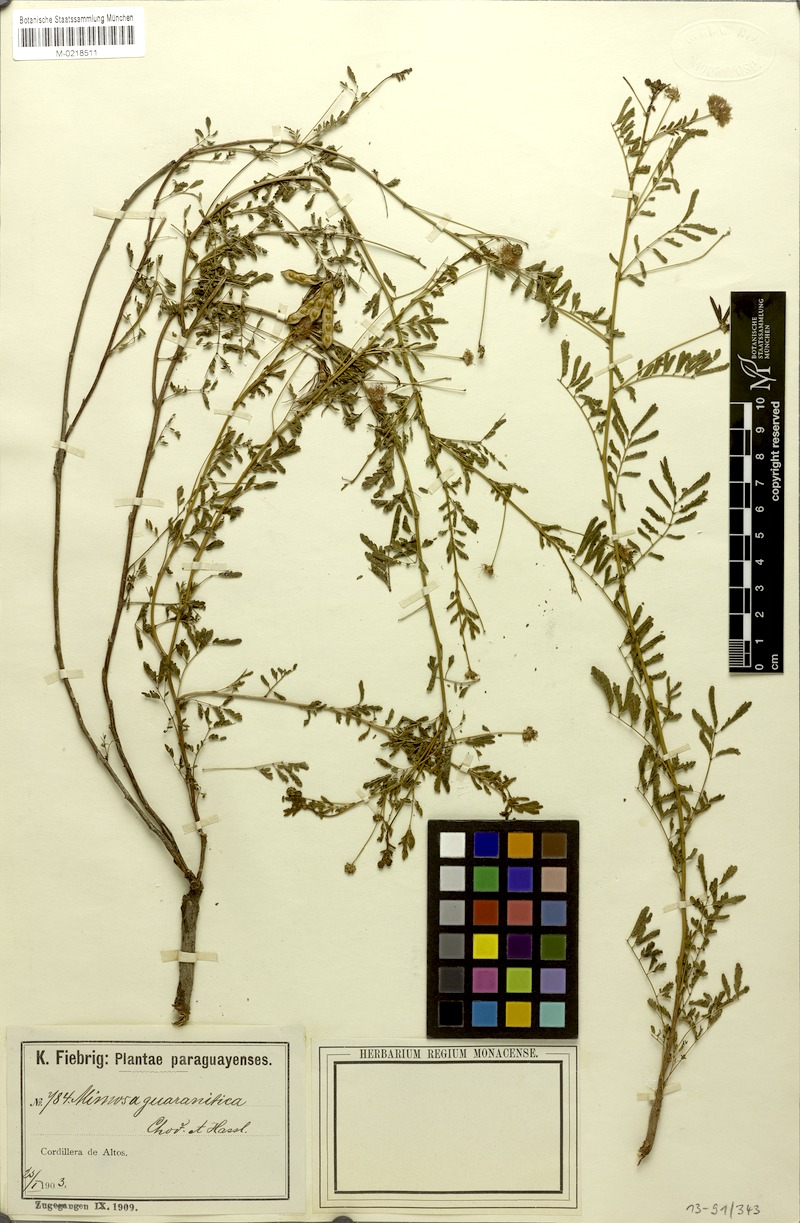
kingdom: Plantae
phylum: Tracheophyta
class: Magnoliopsida
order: Fabales
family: Fabaceae
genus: Mimosa
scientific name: Mimosa guaranitica
